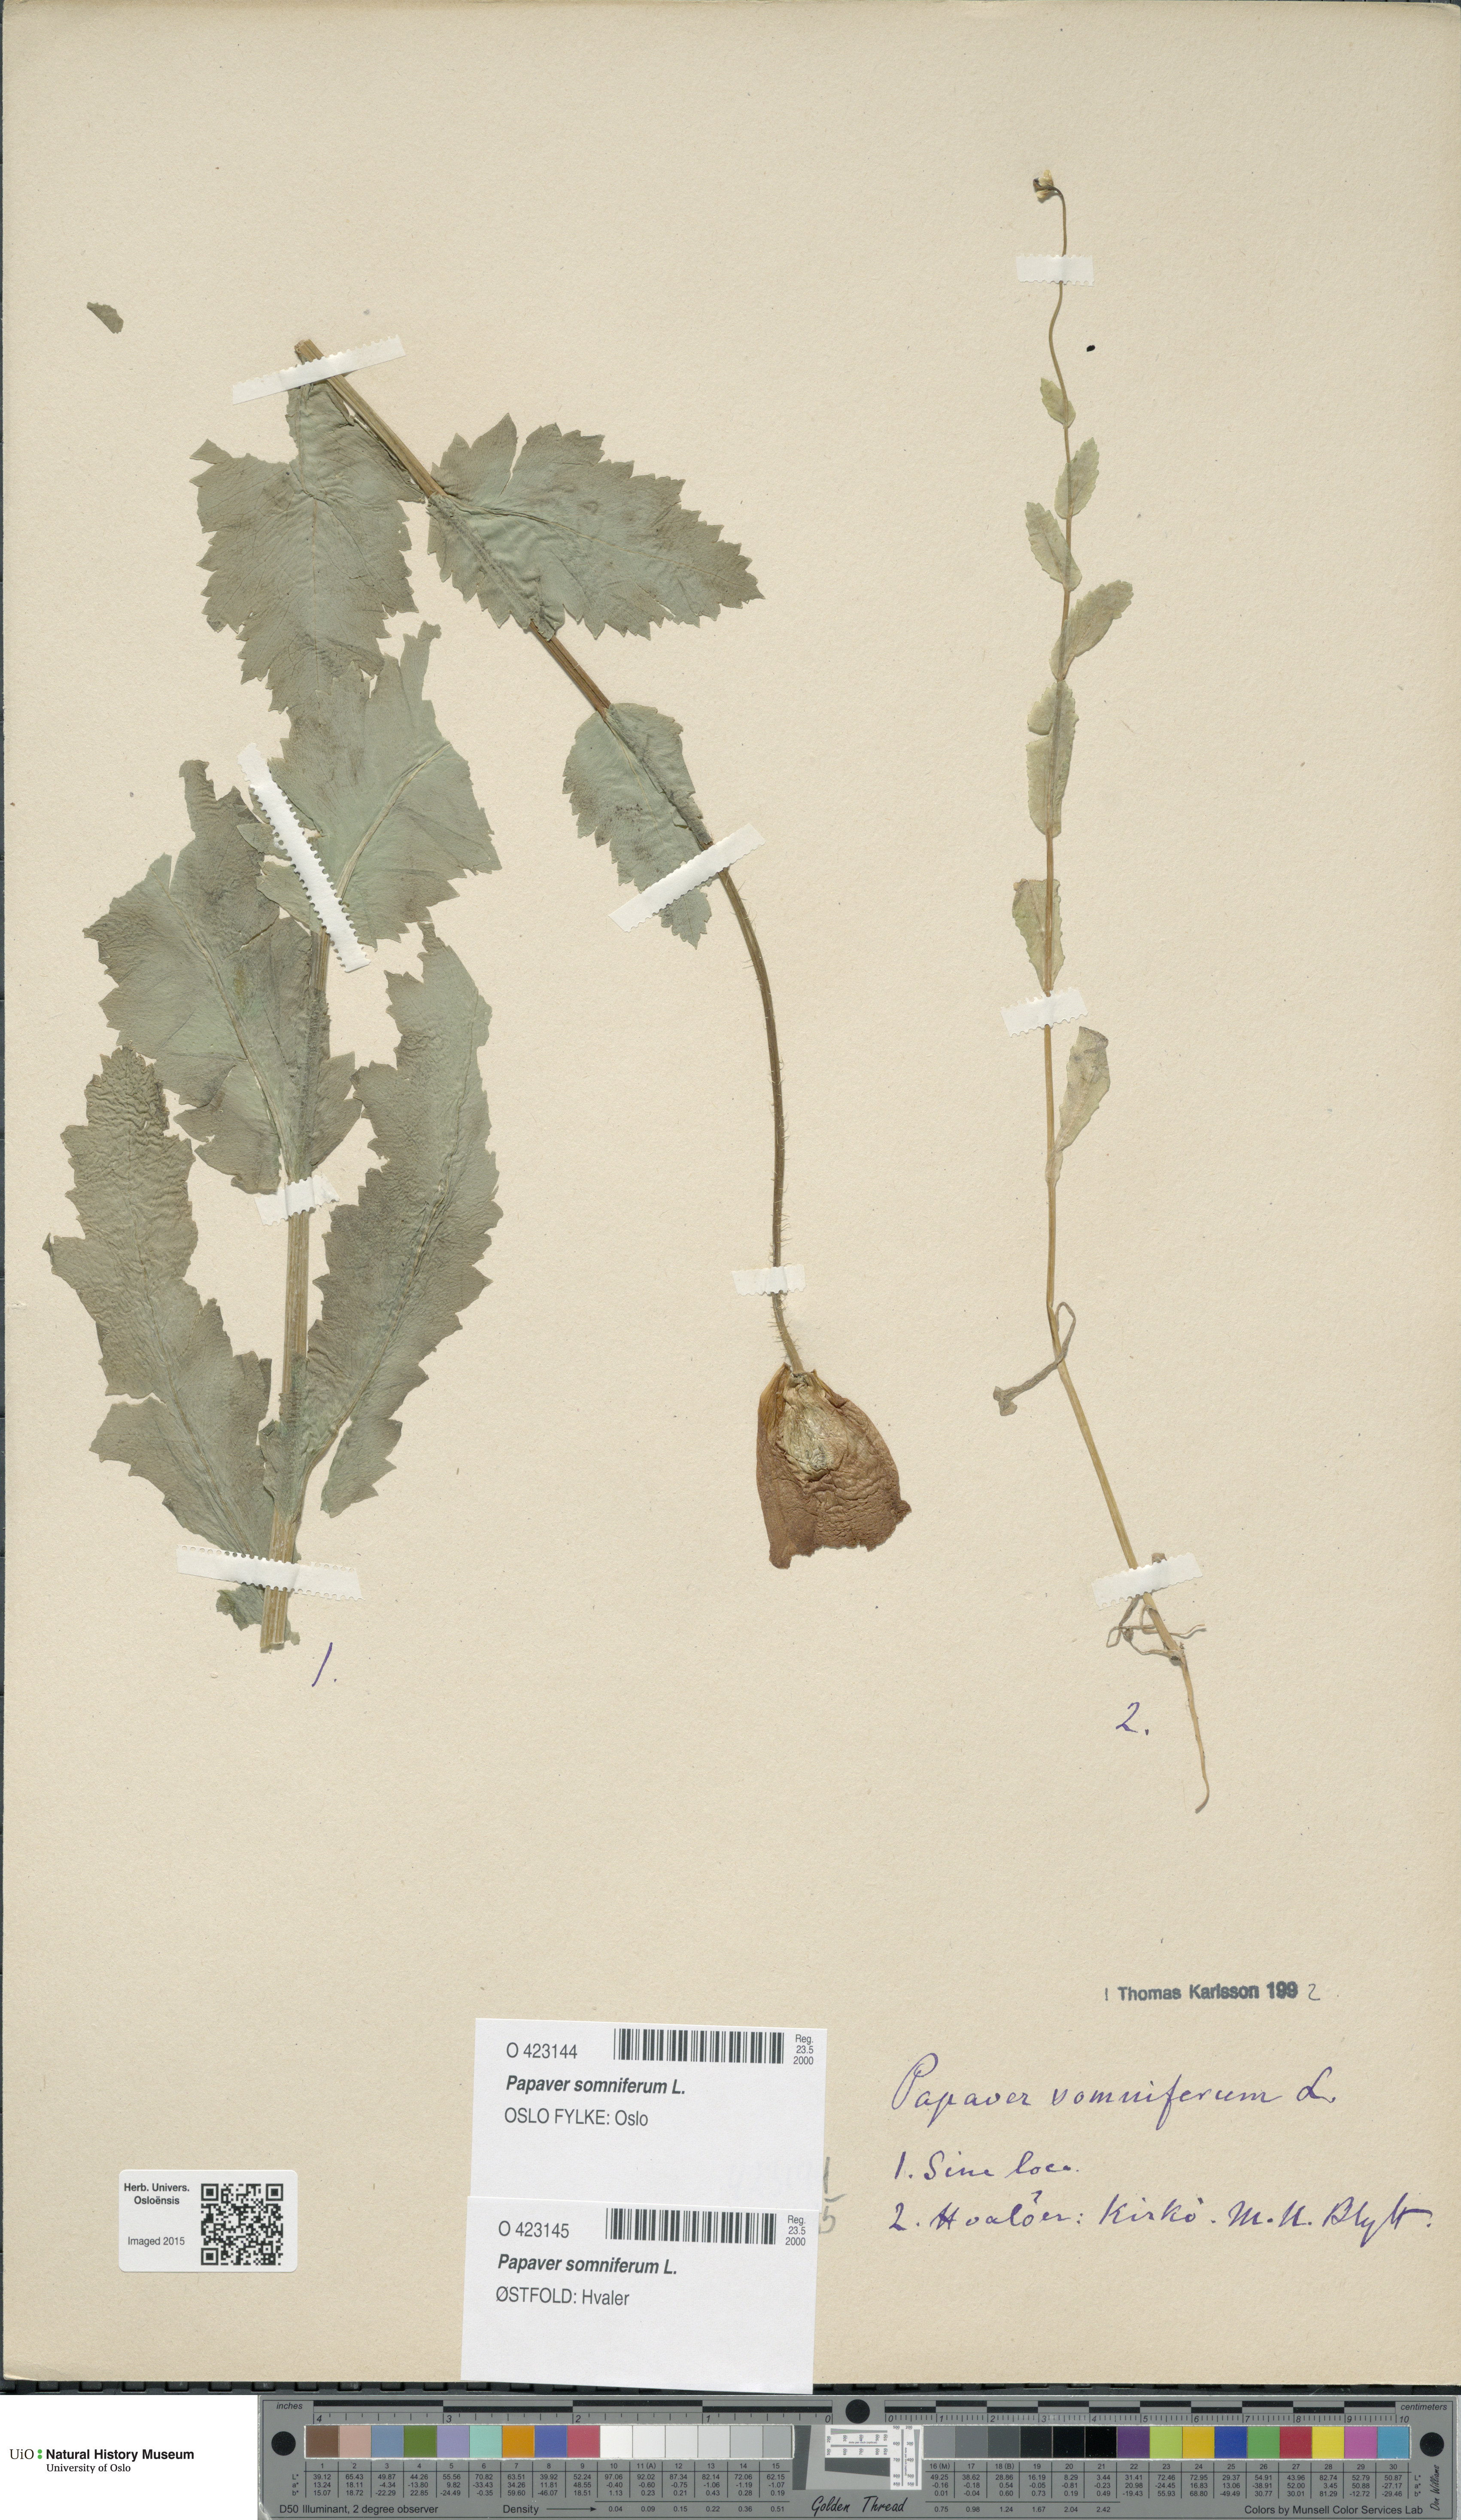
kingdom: Plantae
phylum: Tracheophyta
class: Magnoliopsida
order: Ranunculales
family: Papaveraceae
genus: Papaver
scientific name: Papaver somniferum
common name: Opium poppy
